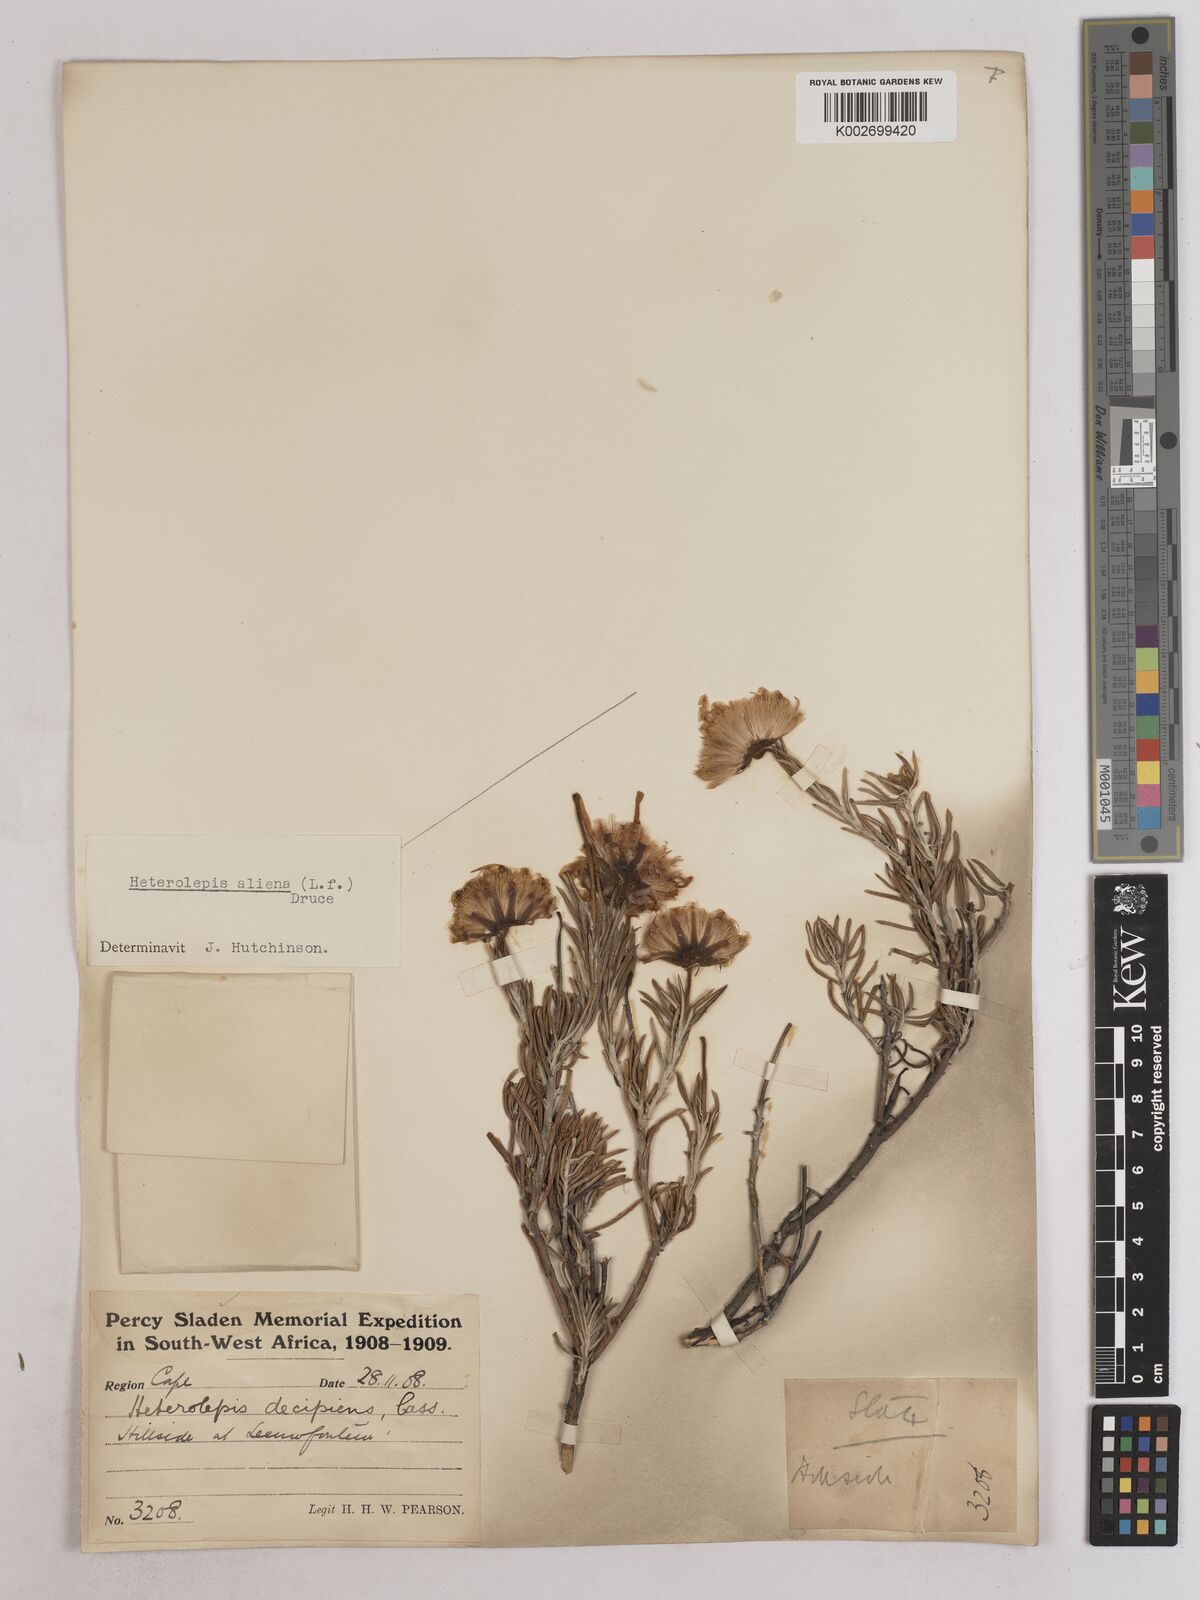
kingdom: Plantae
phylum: Tracheophyta
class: Magnoliopsida
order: Asterales
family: Asteraceae
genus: Heterolepis
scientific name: Heterolepis aliena
